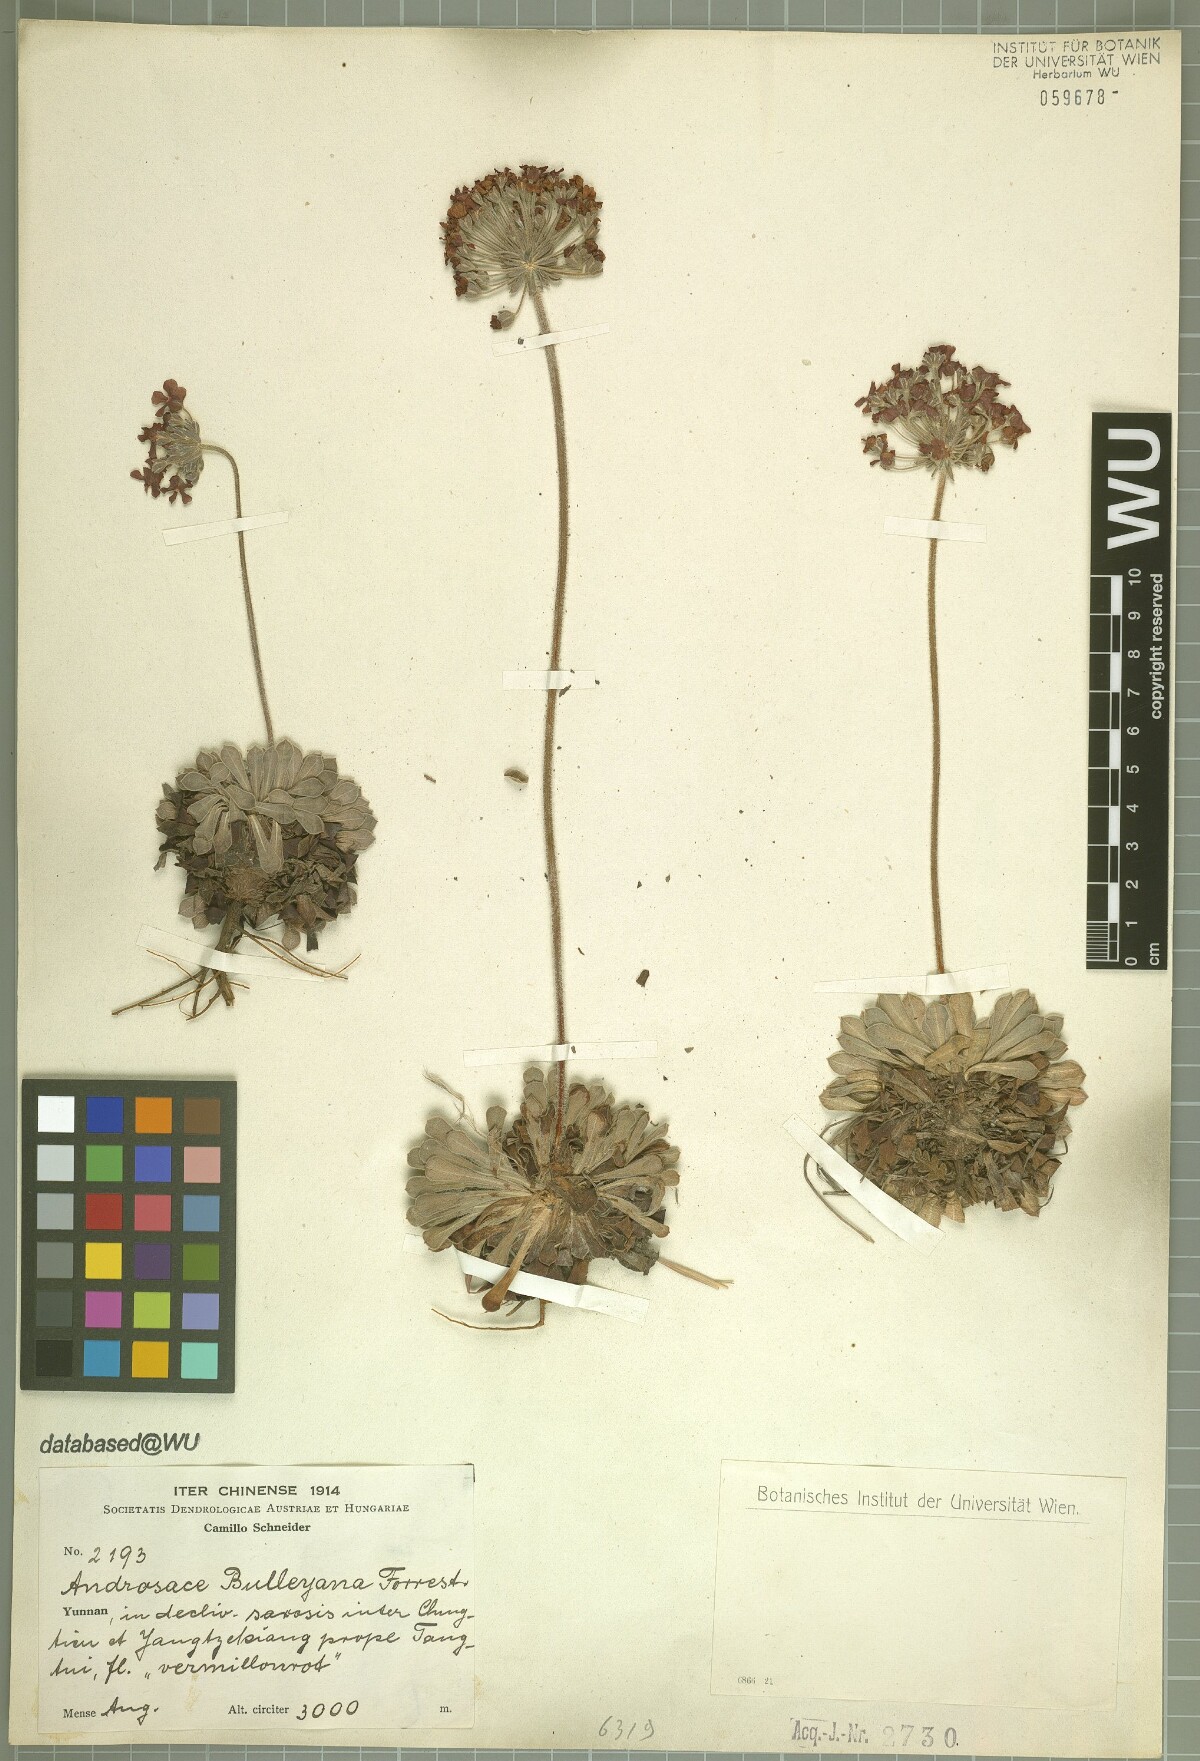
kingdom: Plantae
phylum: Tracheophyta
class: Magnoliopsida
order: Ericales
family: Primulaceae
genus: Androsace
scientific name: Androsace coccinea
